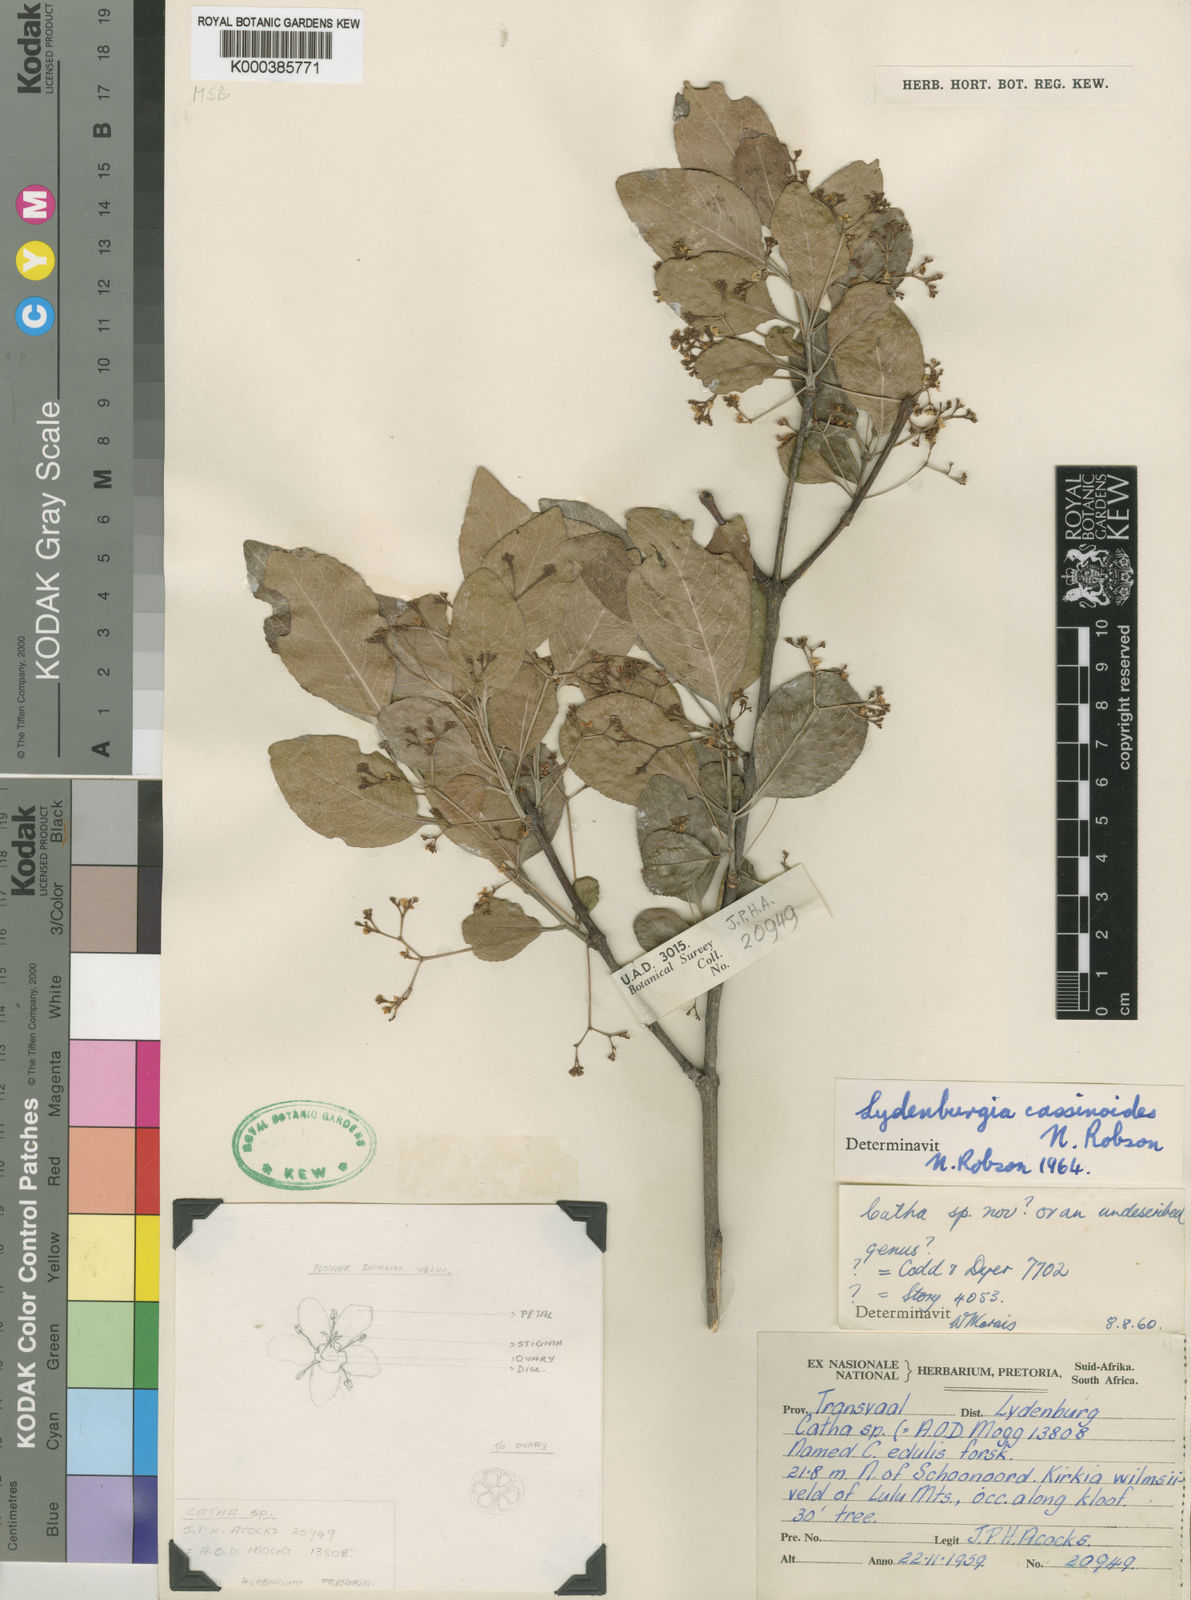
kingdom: Plantae
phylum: Tracheophyta
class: Magnoliopsida
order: Celastrales
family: Celastraceae
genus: Lydenburgia
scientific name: Lydenburgia cassinoides
